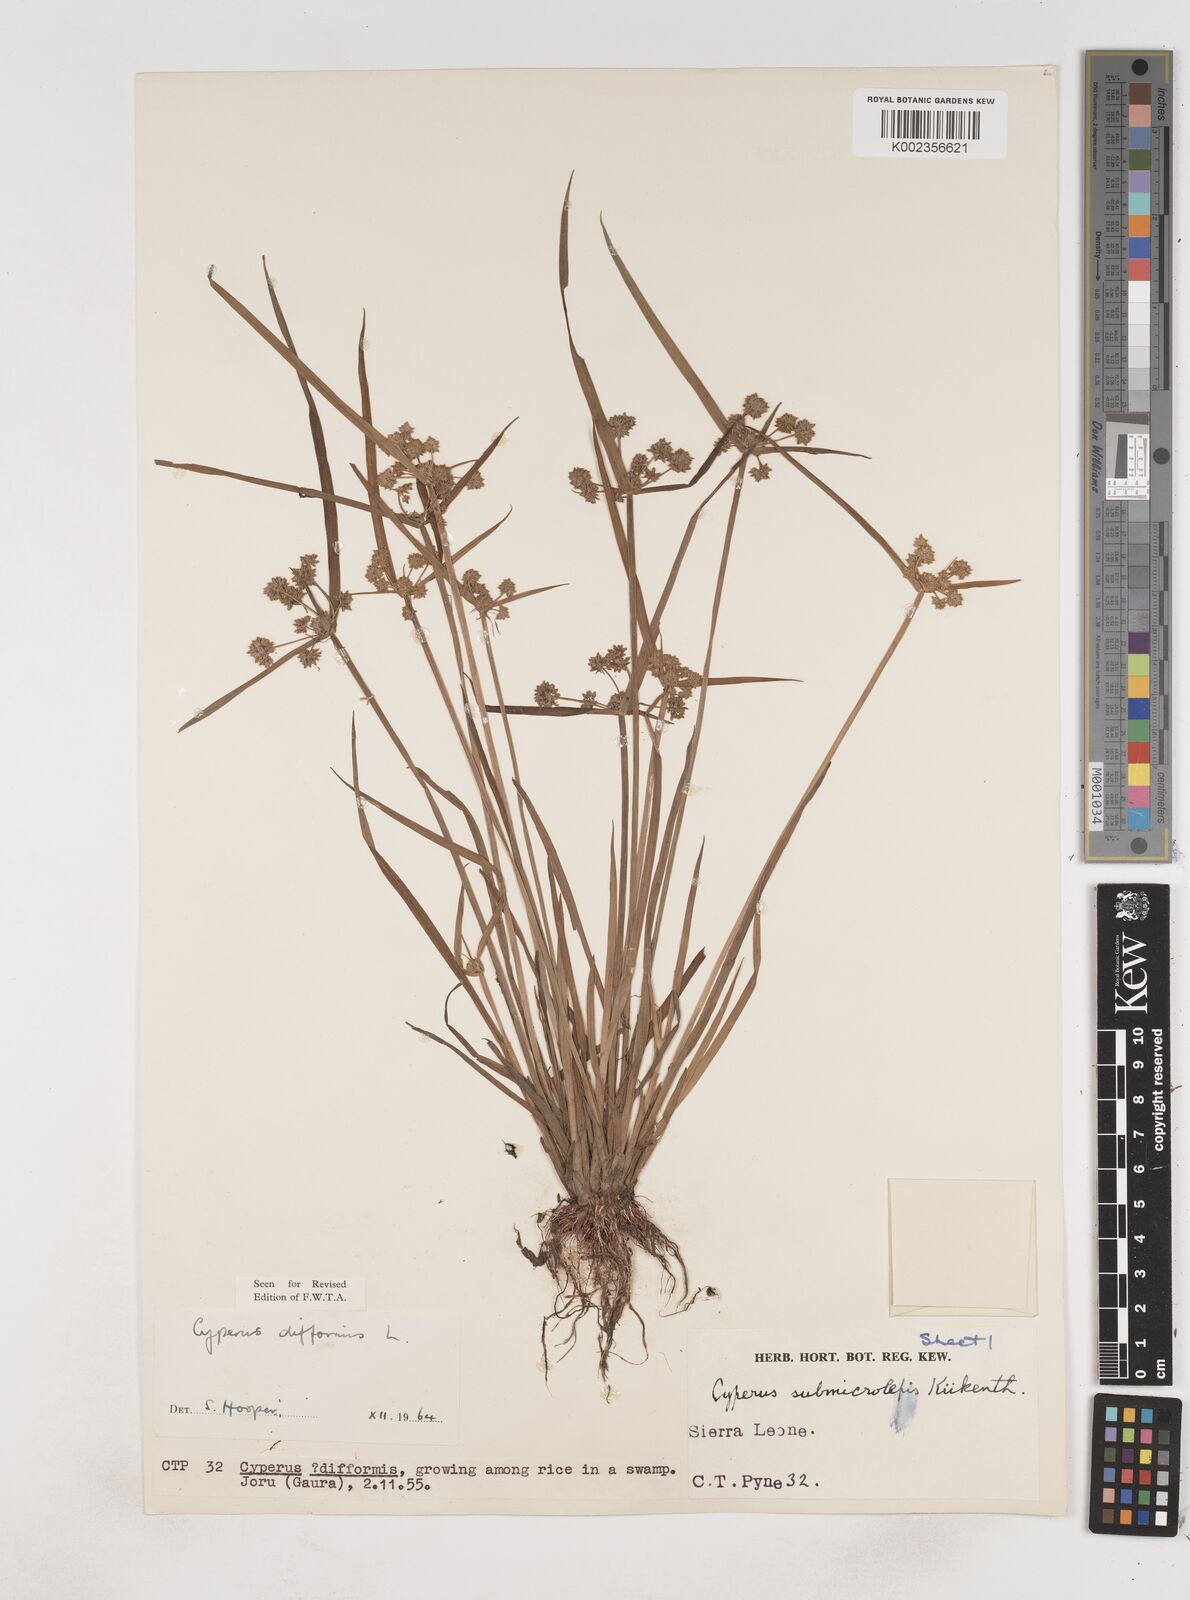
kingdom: Plantae
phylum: Tracheophyta
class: Liliopsida
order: Poales
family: Cyperaceae
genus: Cyperus
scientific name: Cyperus difformis
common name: Variable flatsedge
